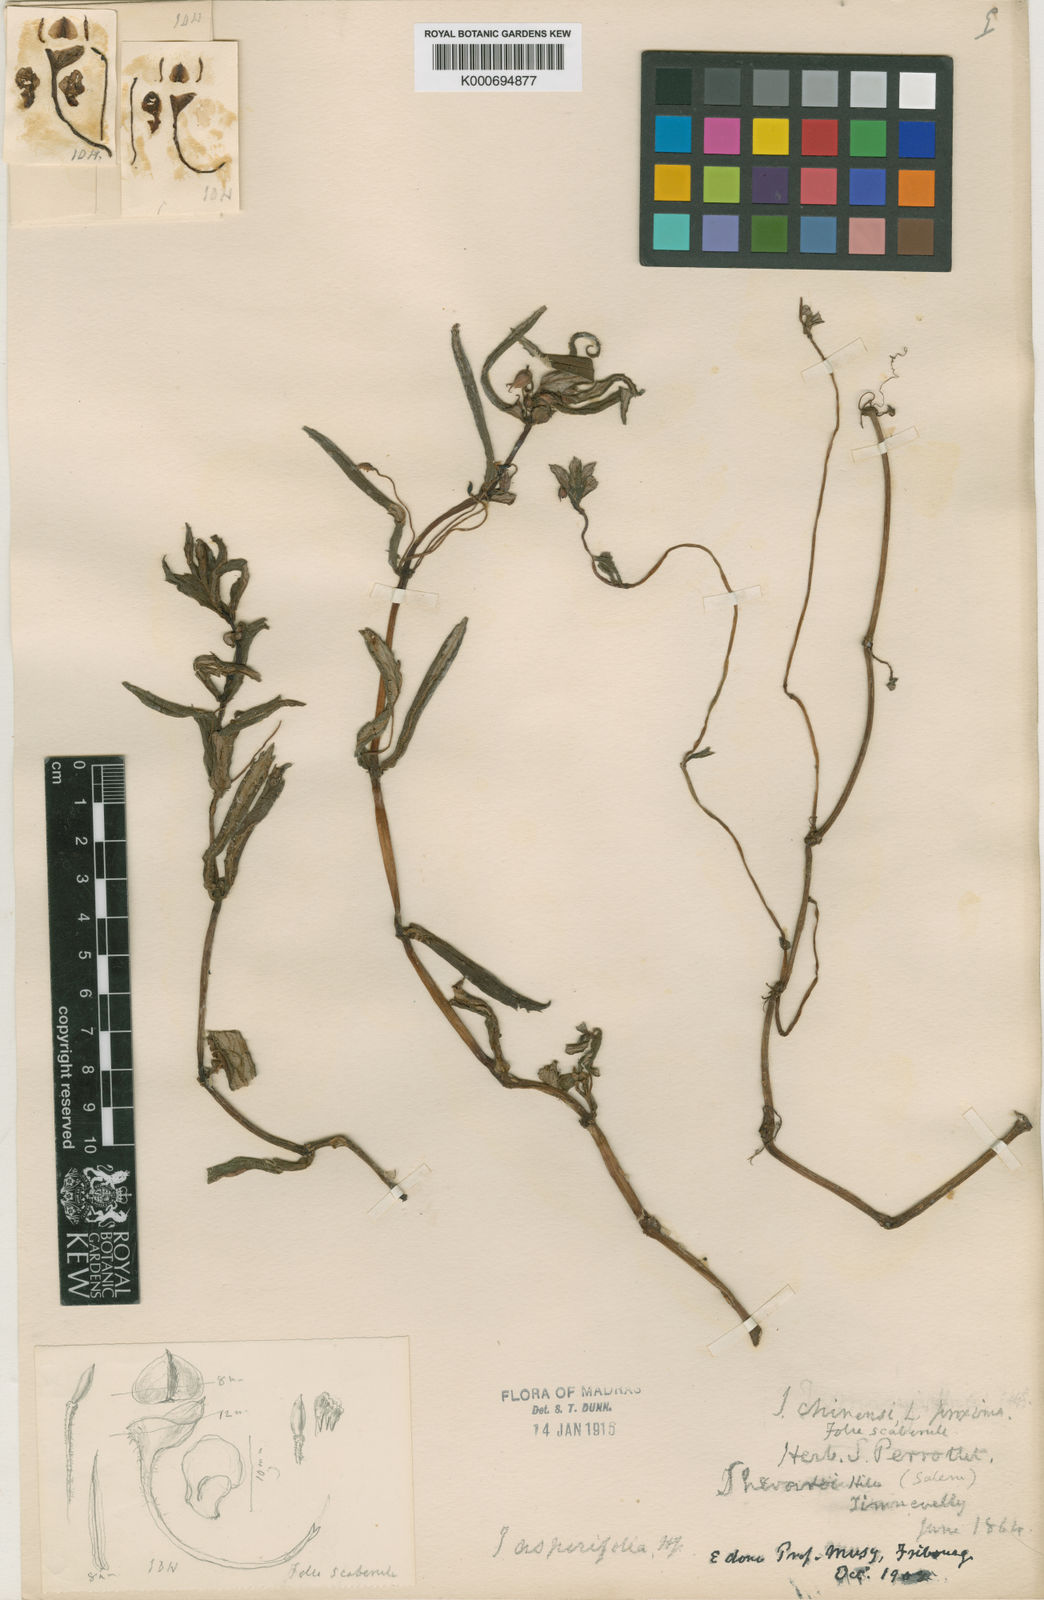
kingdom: Plantae
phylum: Tracheophyta
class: Magnoliopsida
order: Ericales
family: Balsaminaceae
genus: Impatiens
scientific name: Impatiens chinensis
